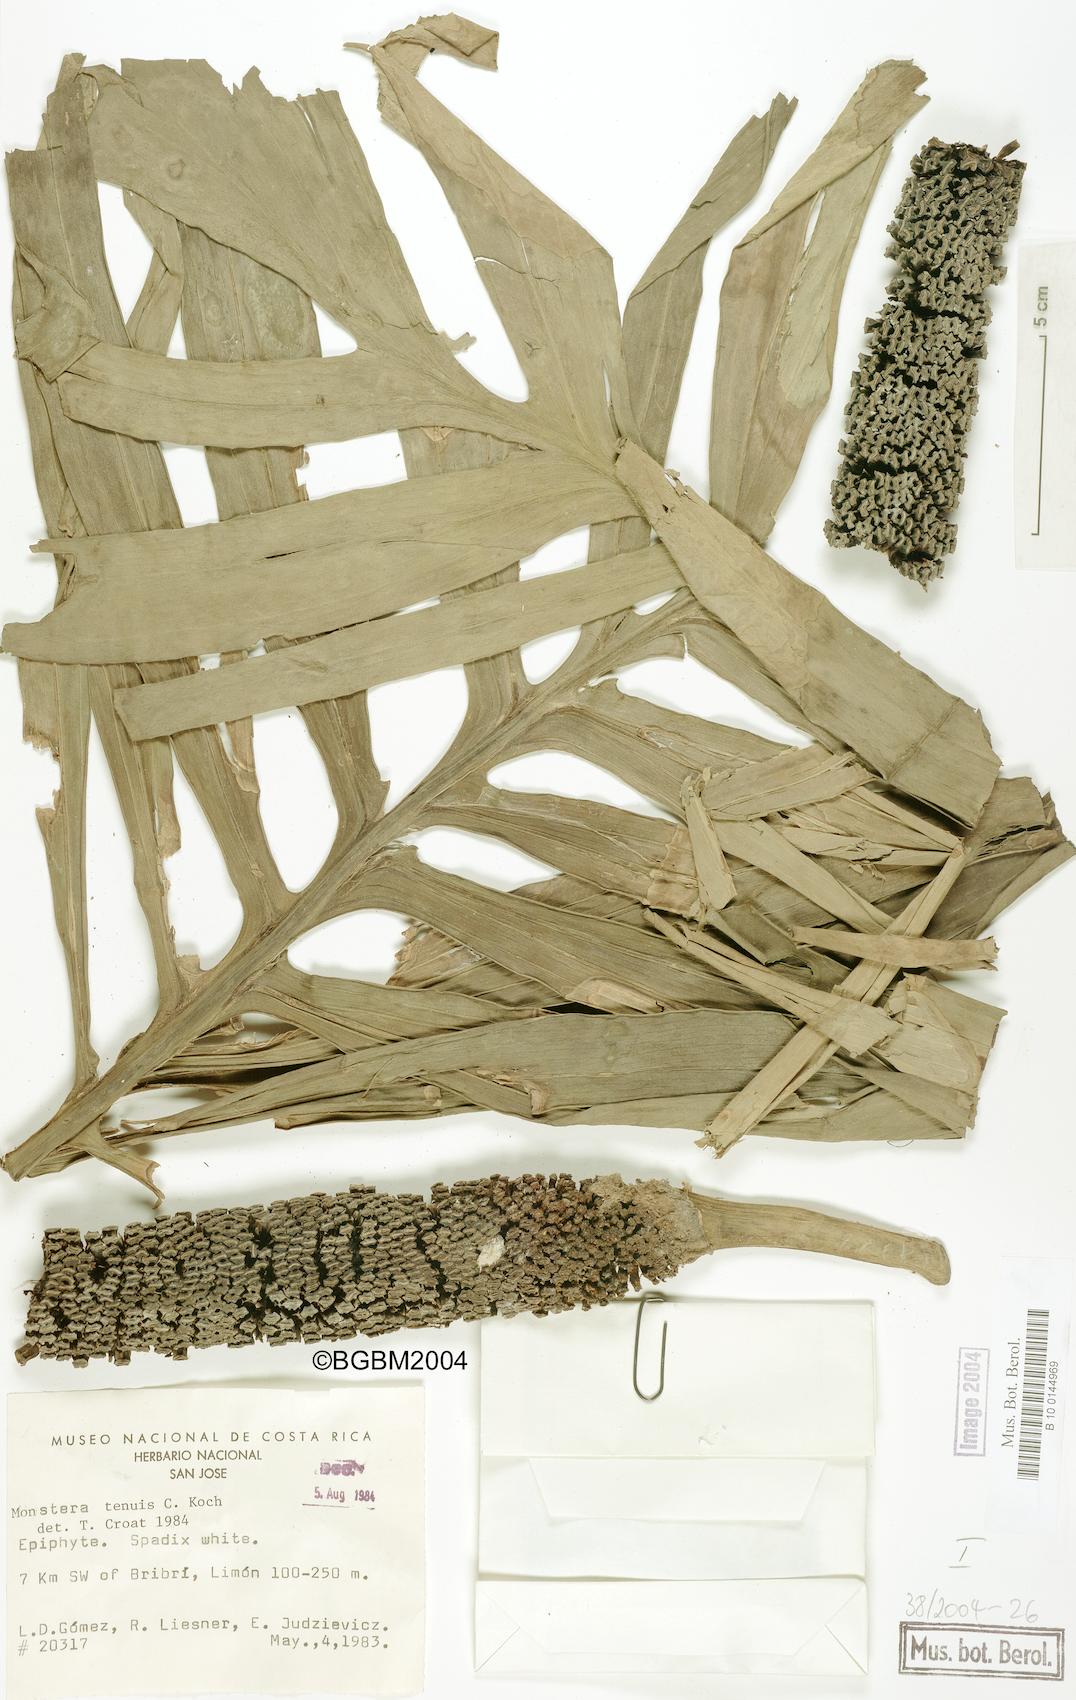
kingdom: Plantae
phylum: Tracheophyta
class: Liliopsida
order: Alismatales
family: Araceae
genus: Monstera
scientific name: Monstera tenuis
